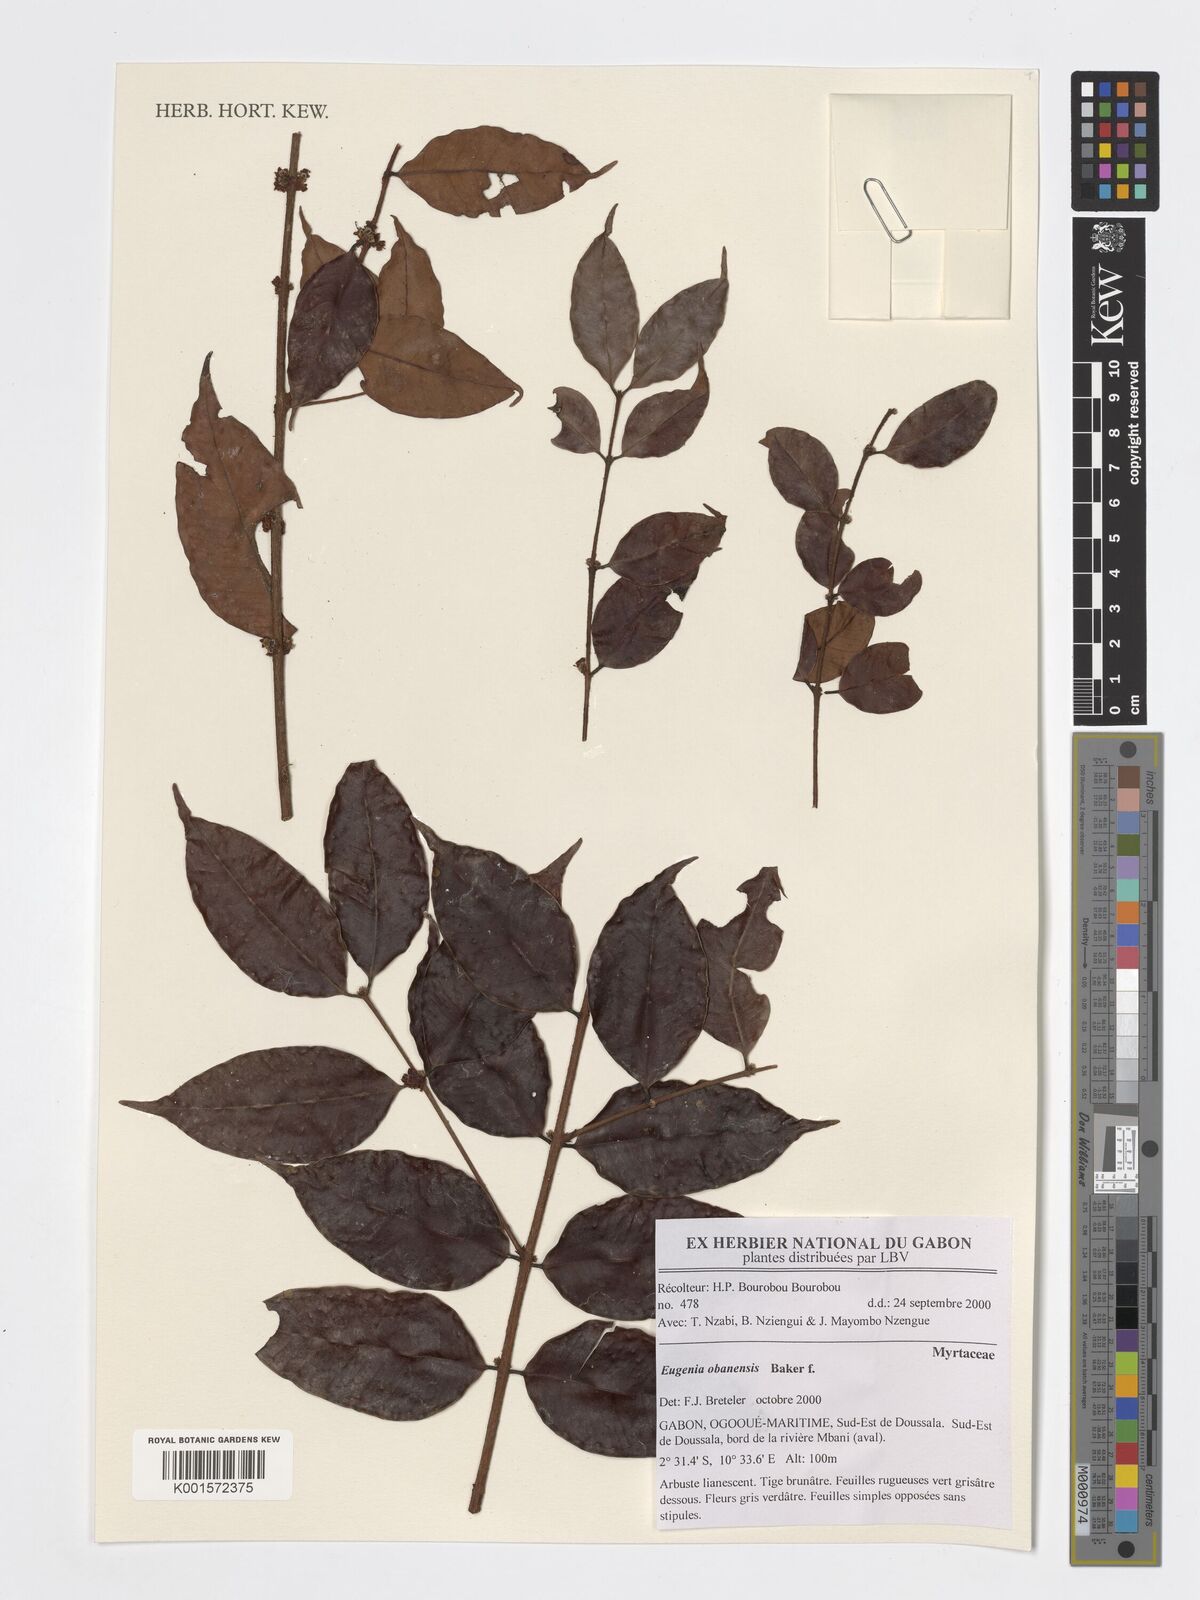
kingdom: Plantae
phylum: Tracheophyta
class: Magnoliopsida
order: Myrtales
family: Myrtaceae
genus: Eugenia
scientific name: Eugenia obanensis
